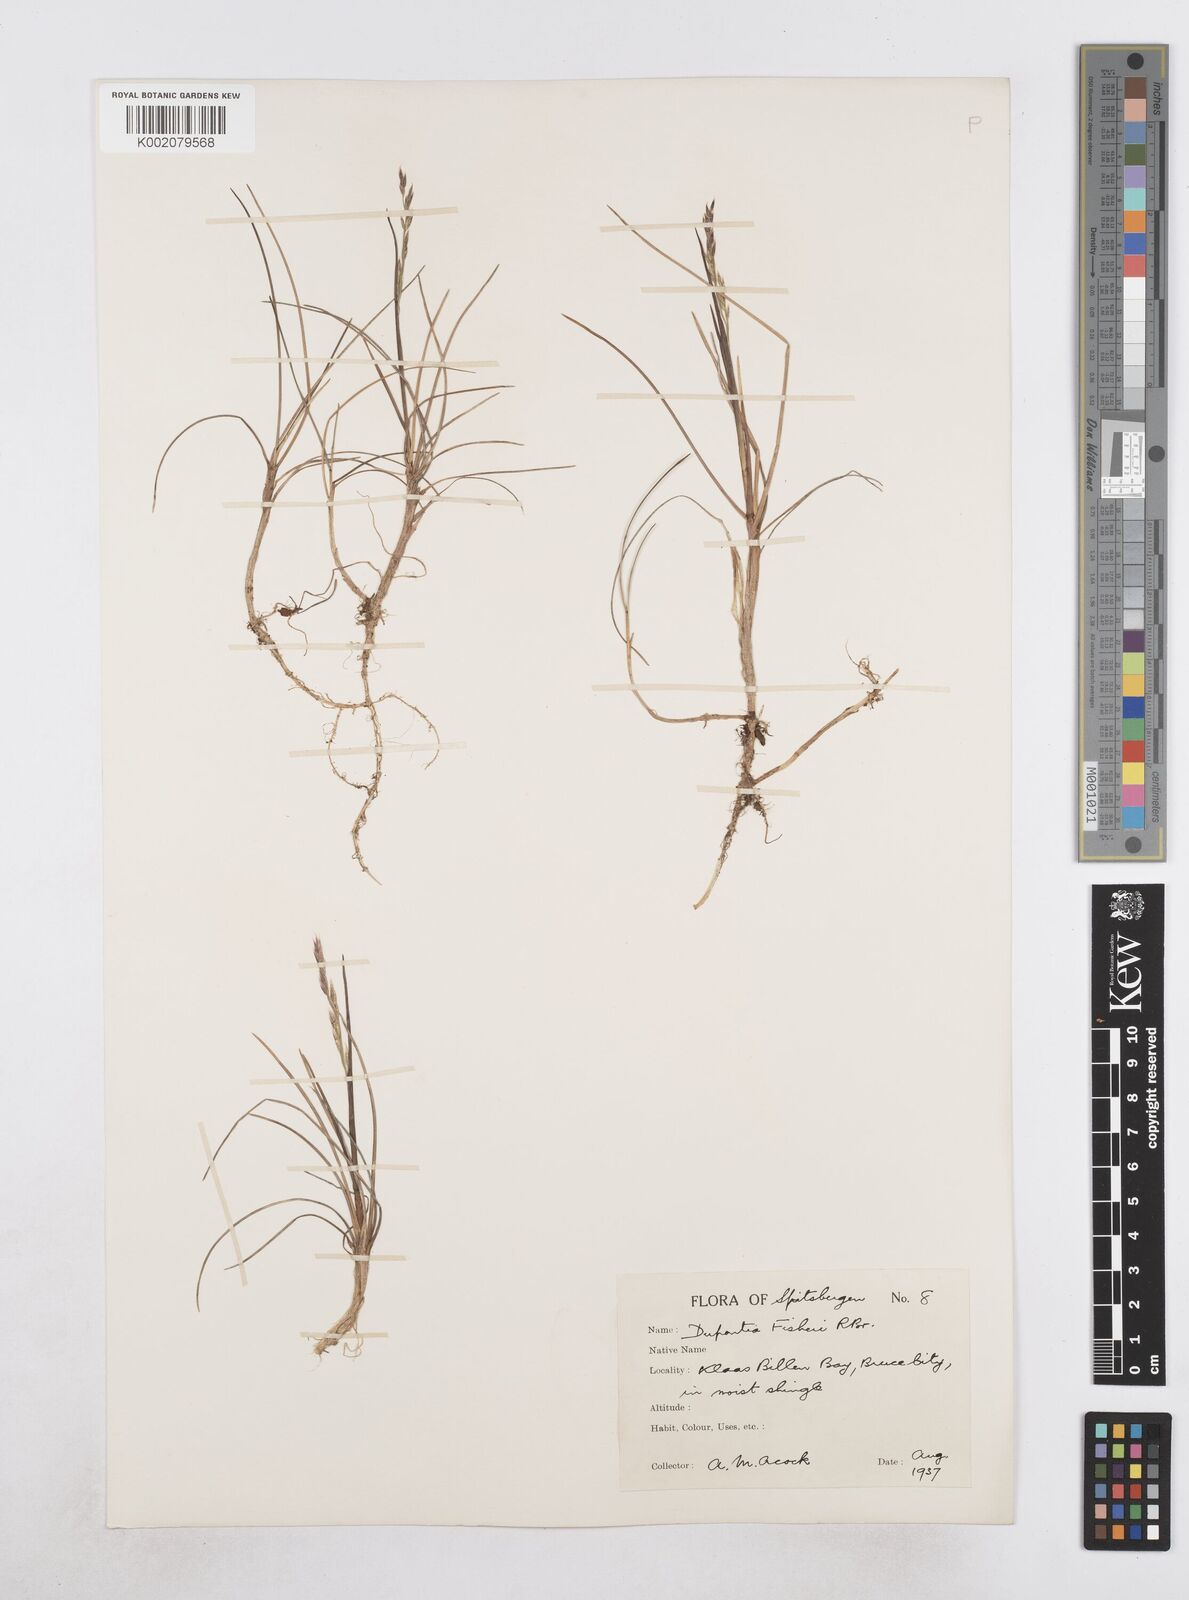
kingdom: Plantae
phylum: Tracheophyta
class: Liliopsida
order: Poales
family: Poaceae
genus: Dupontia
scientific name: Dupontia fisheri
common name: Tundra grass
